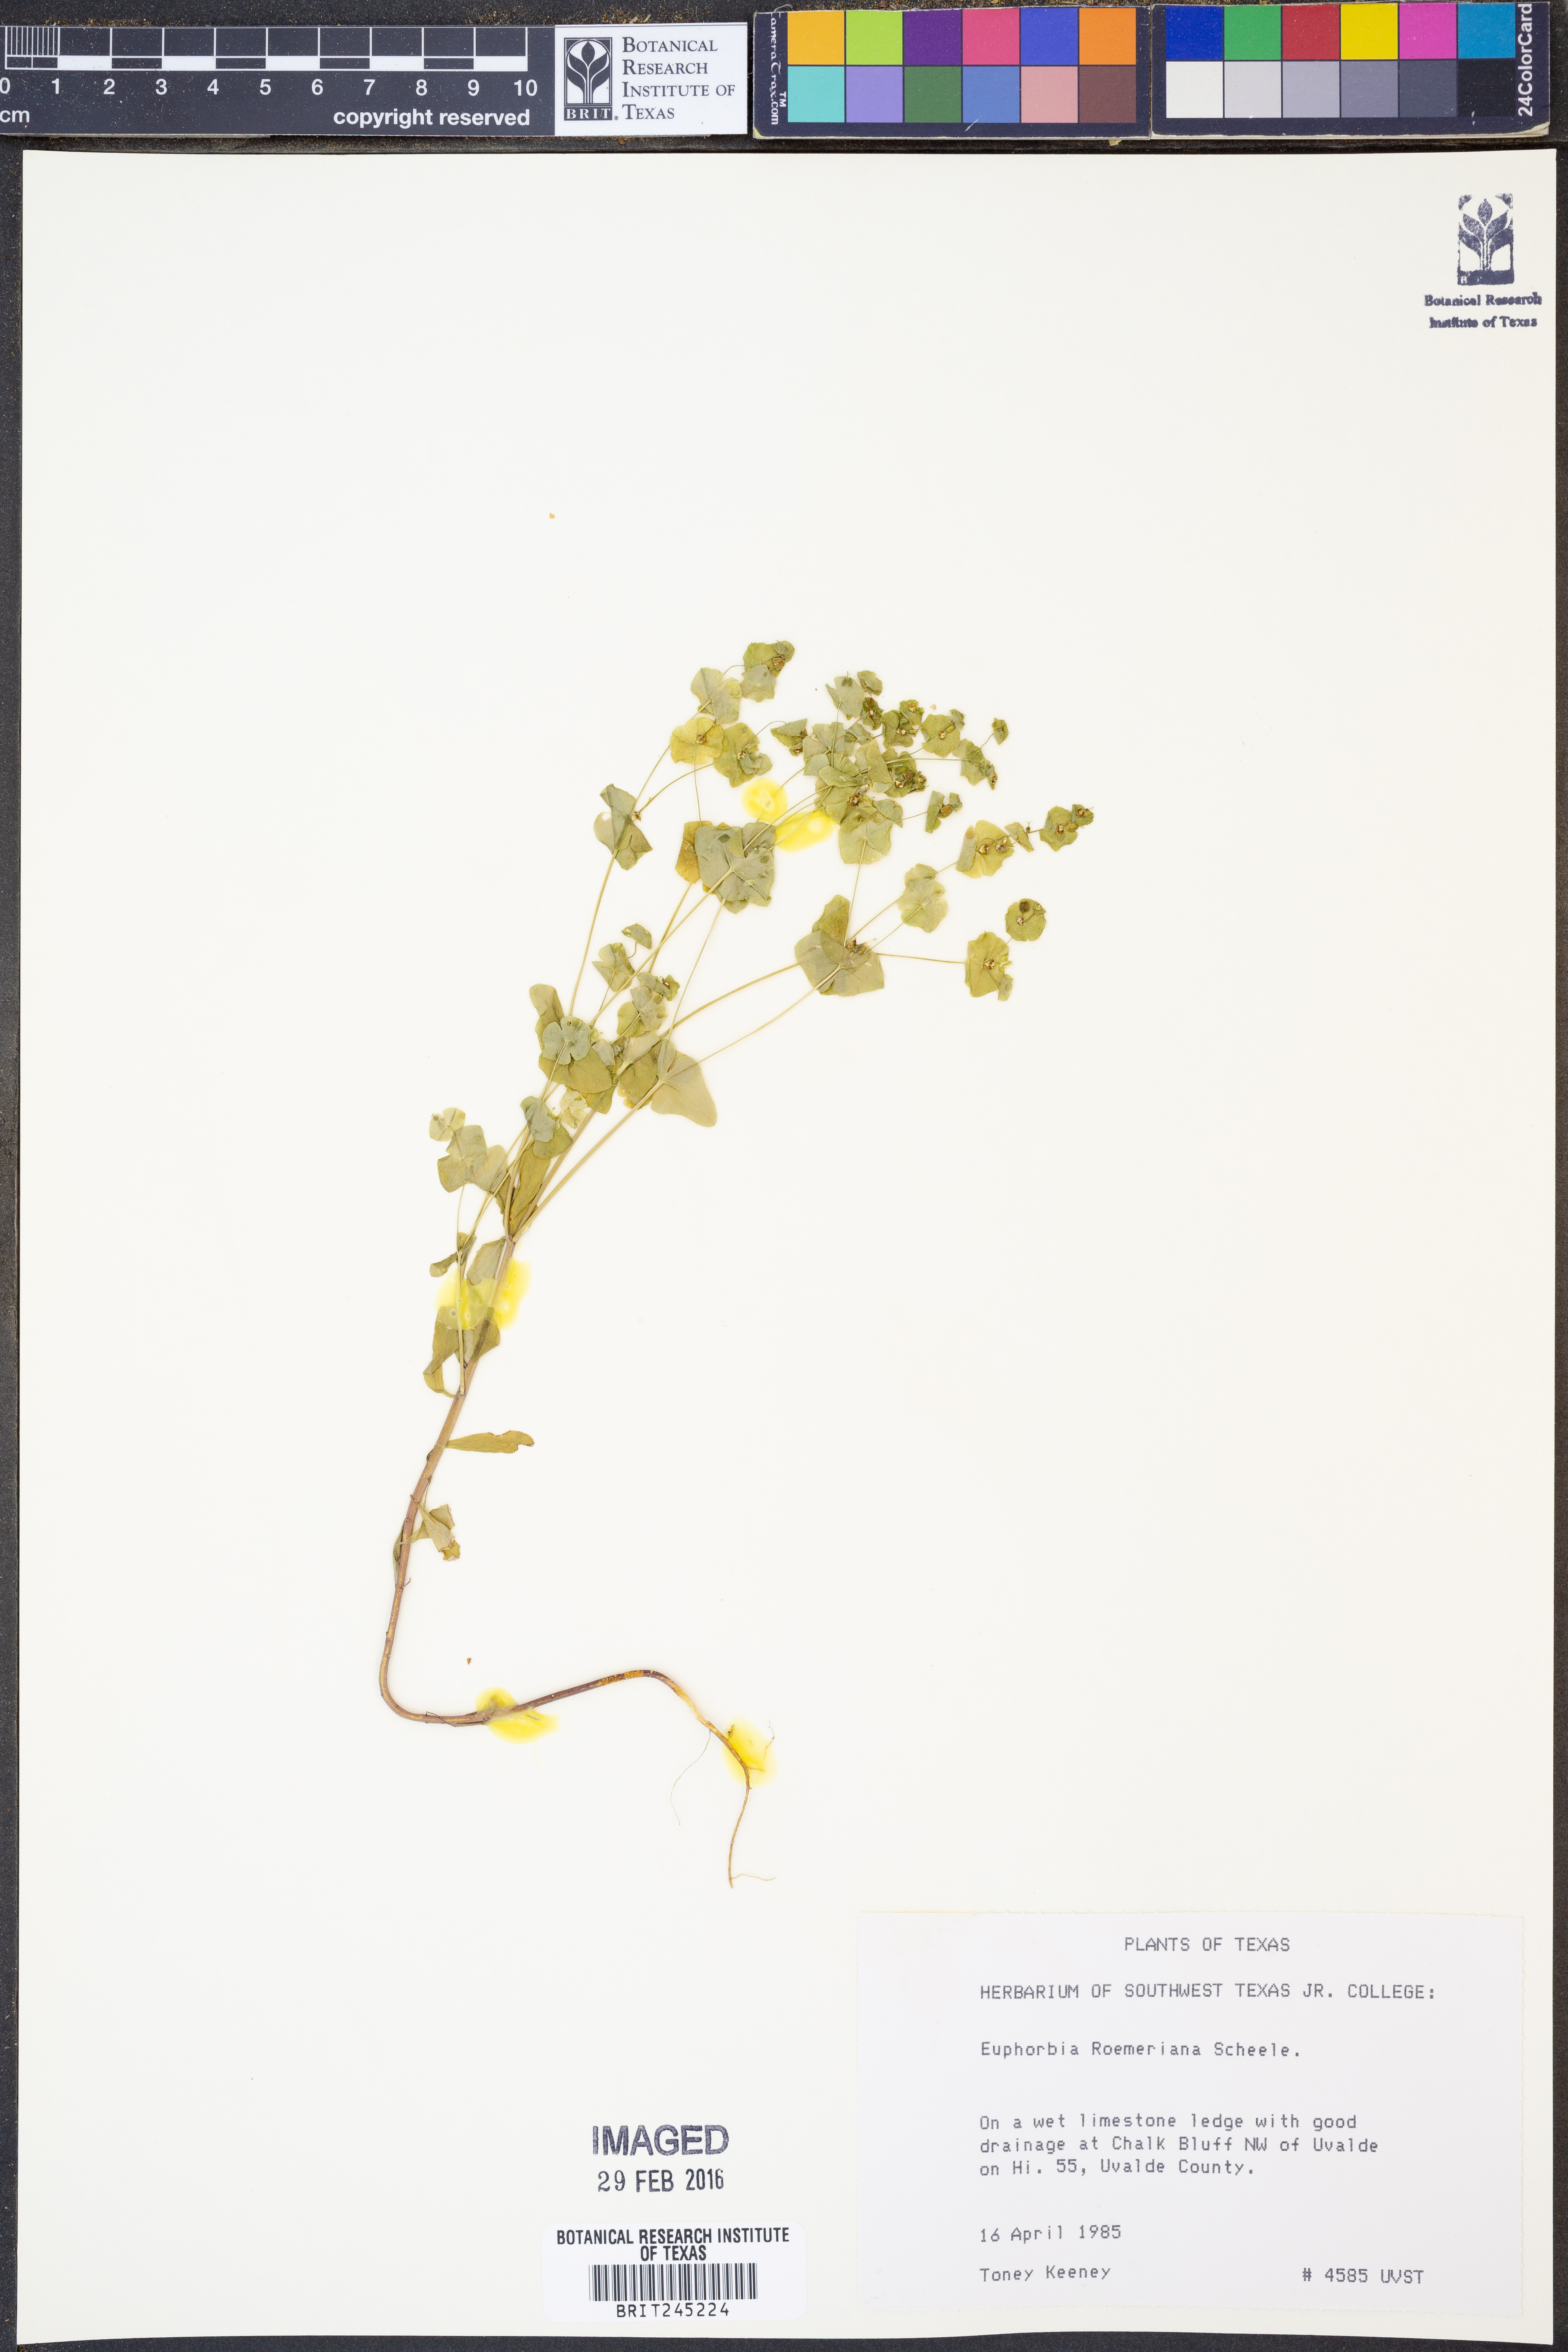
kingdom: Plantae
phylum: Tracheophyta
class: Magnoliopsida
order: Malpighiales
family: Euphorbiaceae
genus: Euphorbia
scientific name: Euphorbia roemeriana
